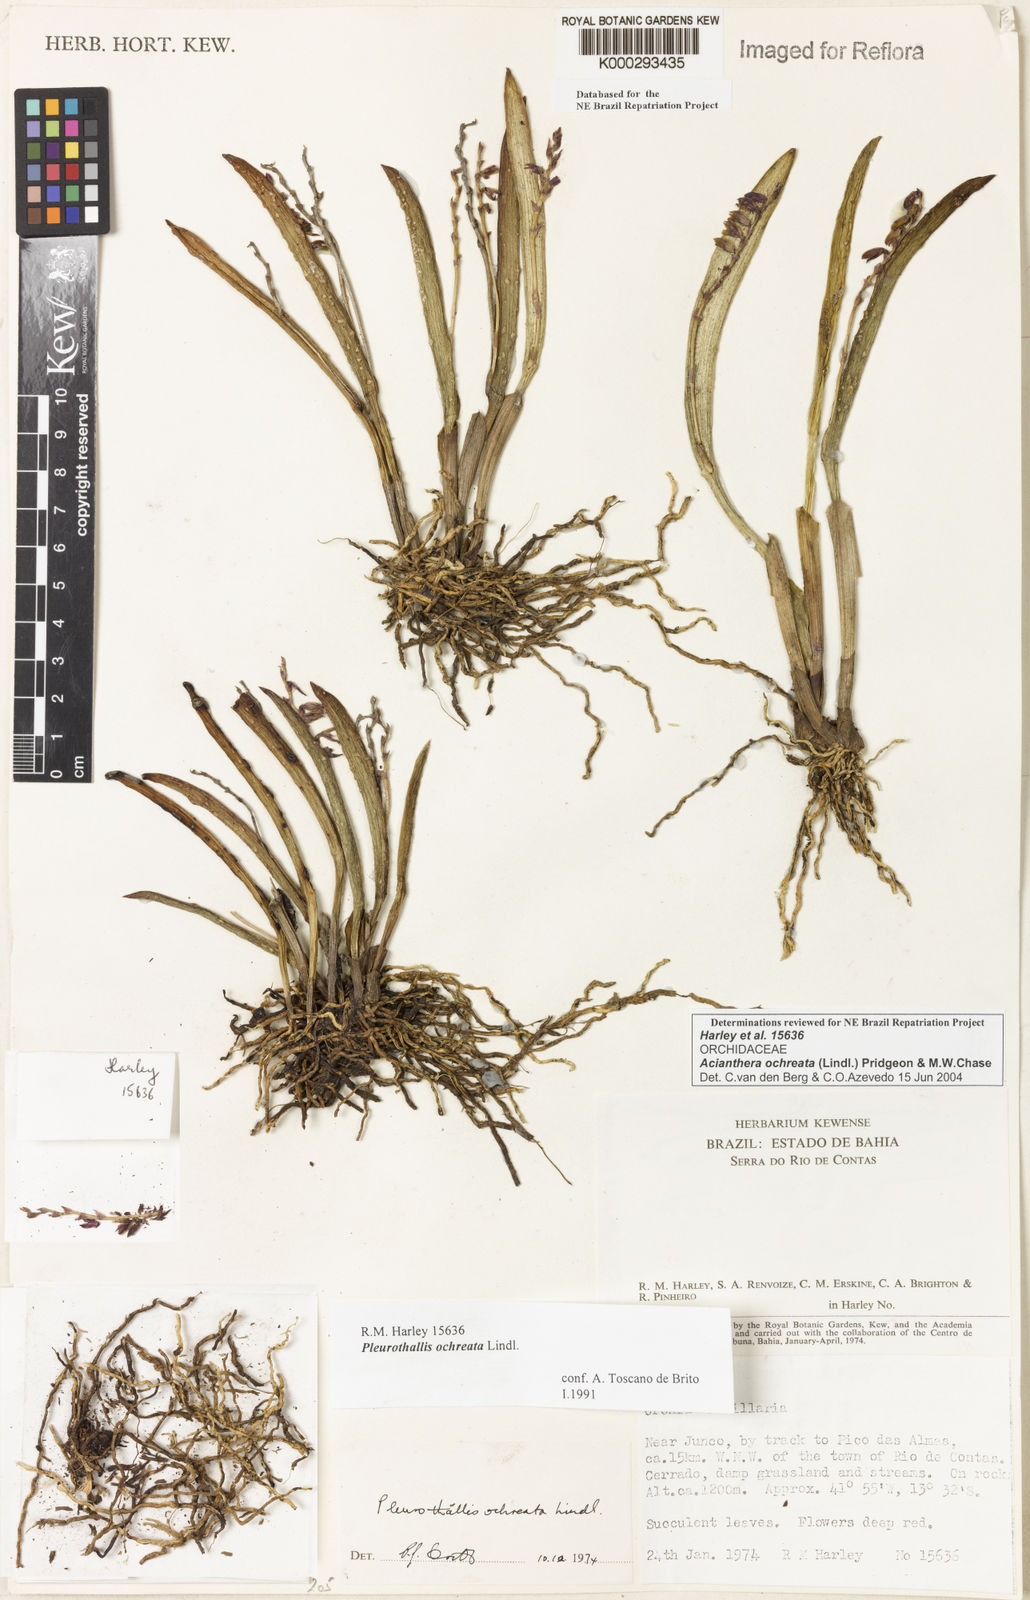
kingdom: Plantae
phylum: Tracheophyta
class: Liliopsida
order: Asparagales
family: Orchidaceae
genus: Acianthera
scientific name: Acianthera ochreata
